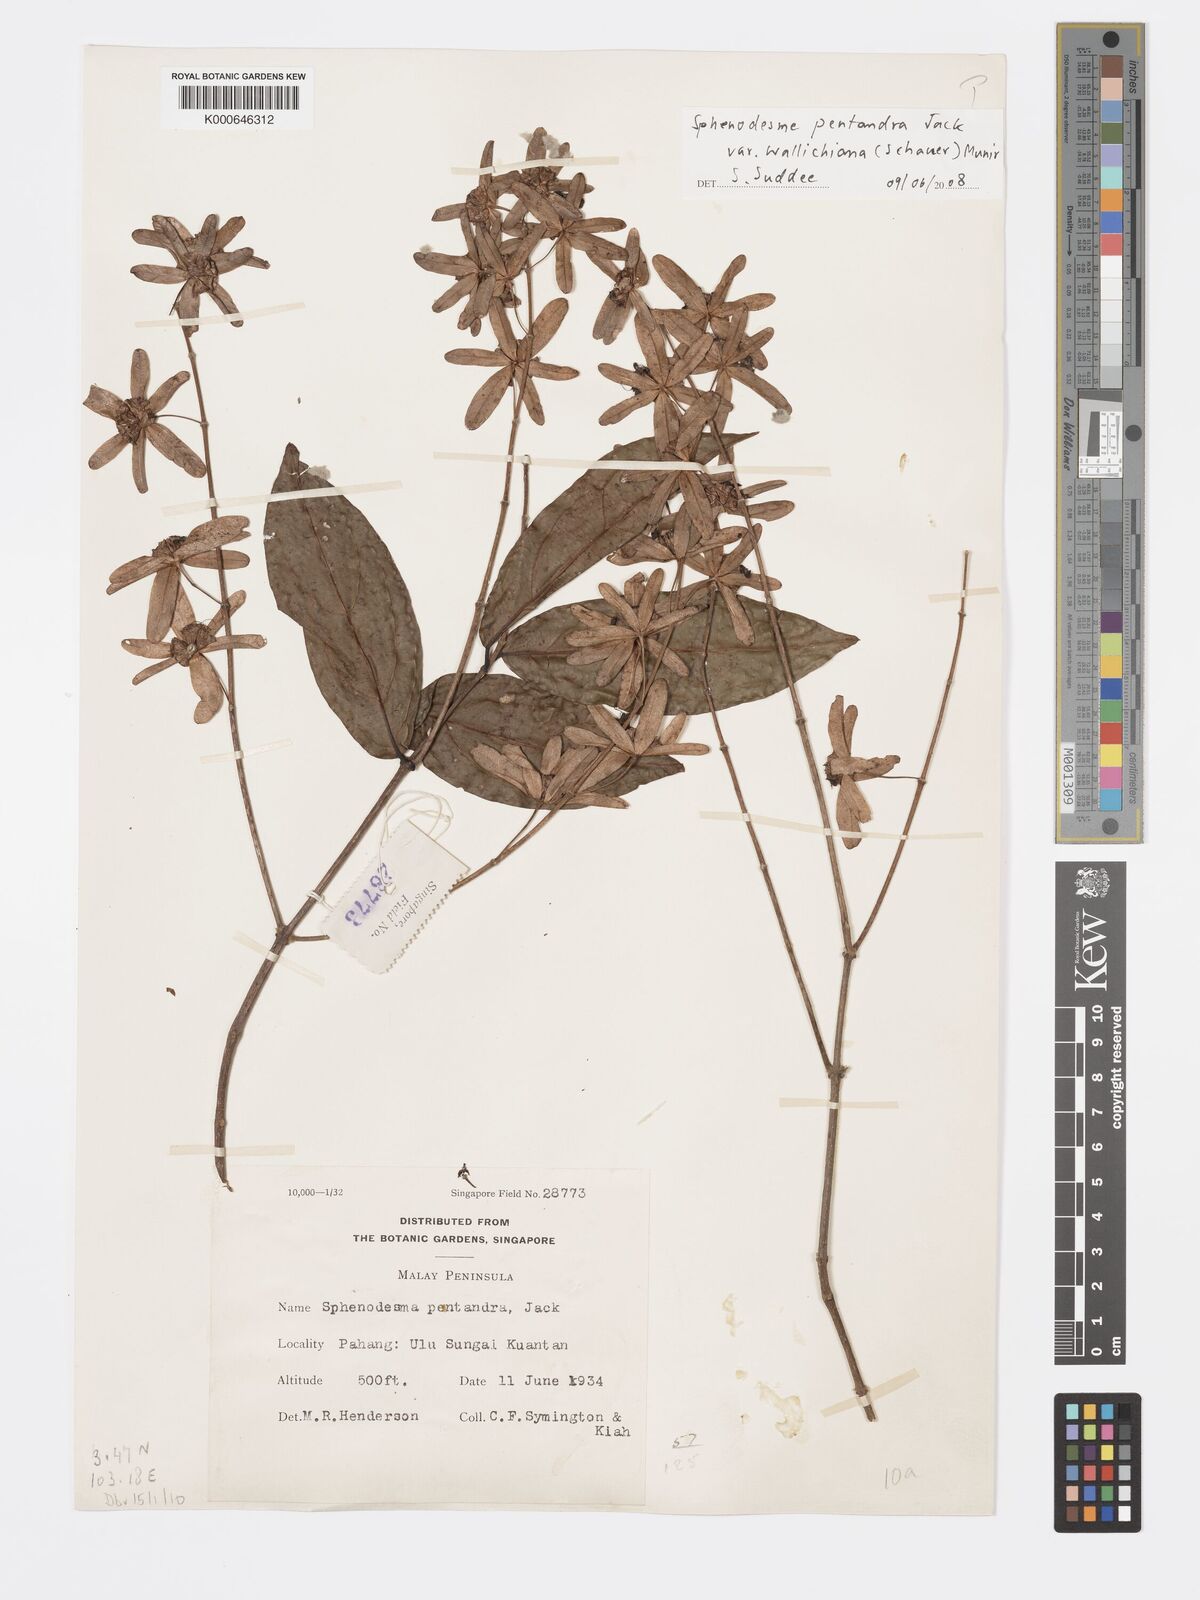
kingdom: Plantae
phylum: Tracheophyta
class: Magnoliopsida
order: Lamiales
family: Lamiaceae
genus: Sphenodesme
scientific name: Sphenodesme pentandra
